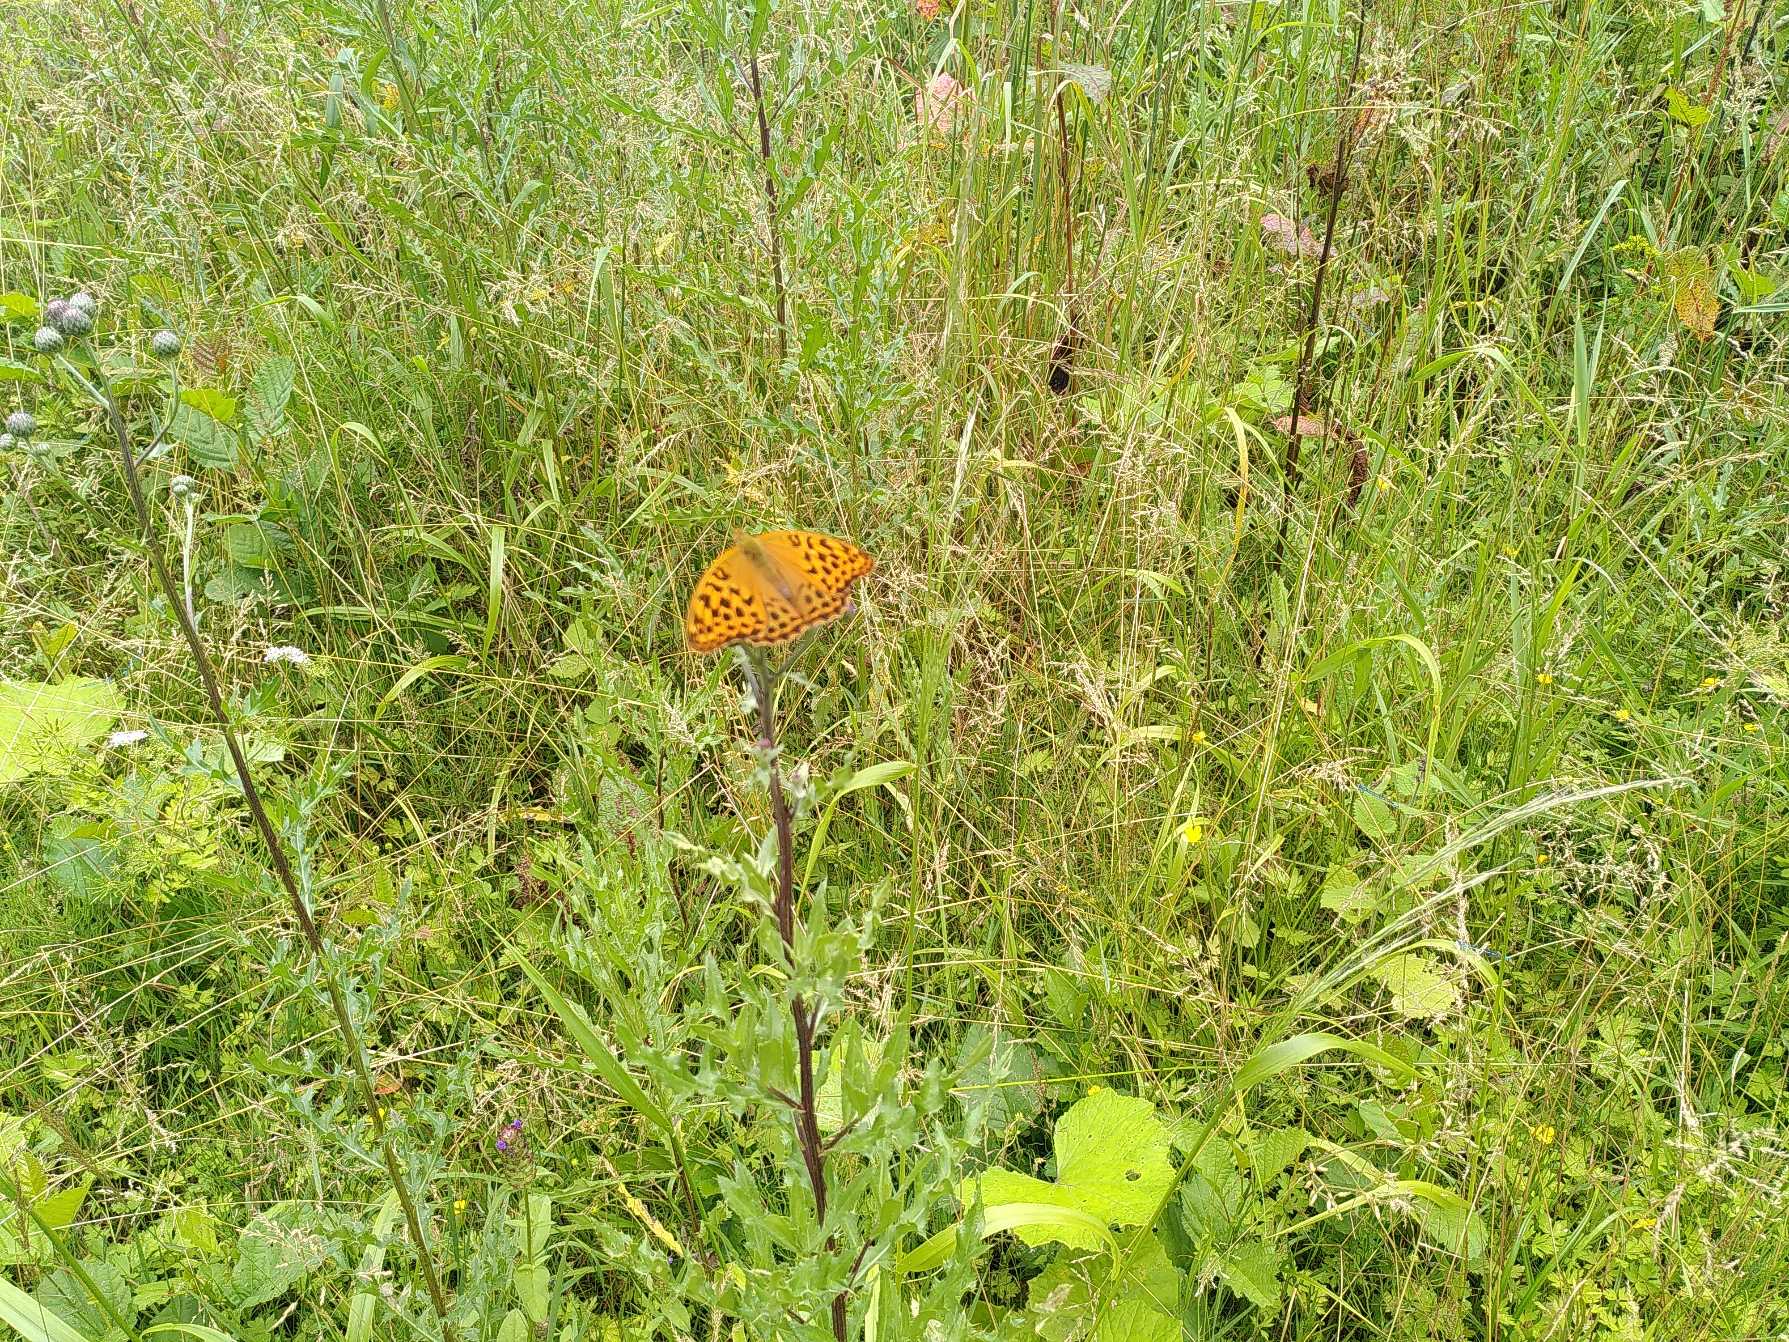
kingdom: Animalia
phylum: Arthropoda
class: Insecta
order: Lepidoptera
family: Nymphalidae
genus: Argynnis
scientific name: Argynnis paphia
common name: Kejserkåbe
